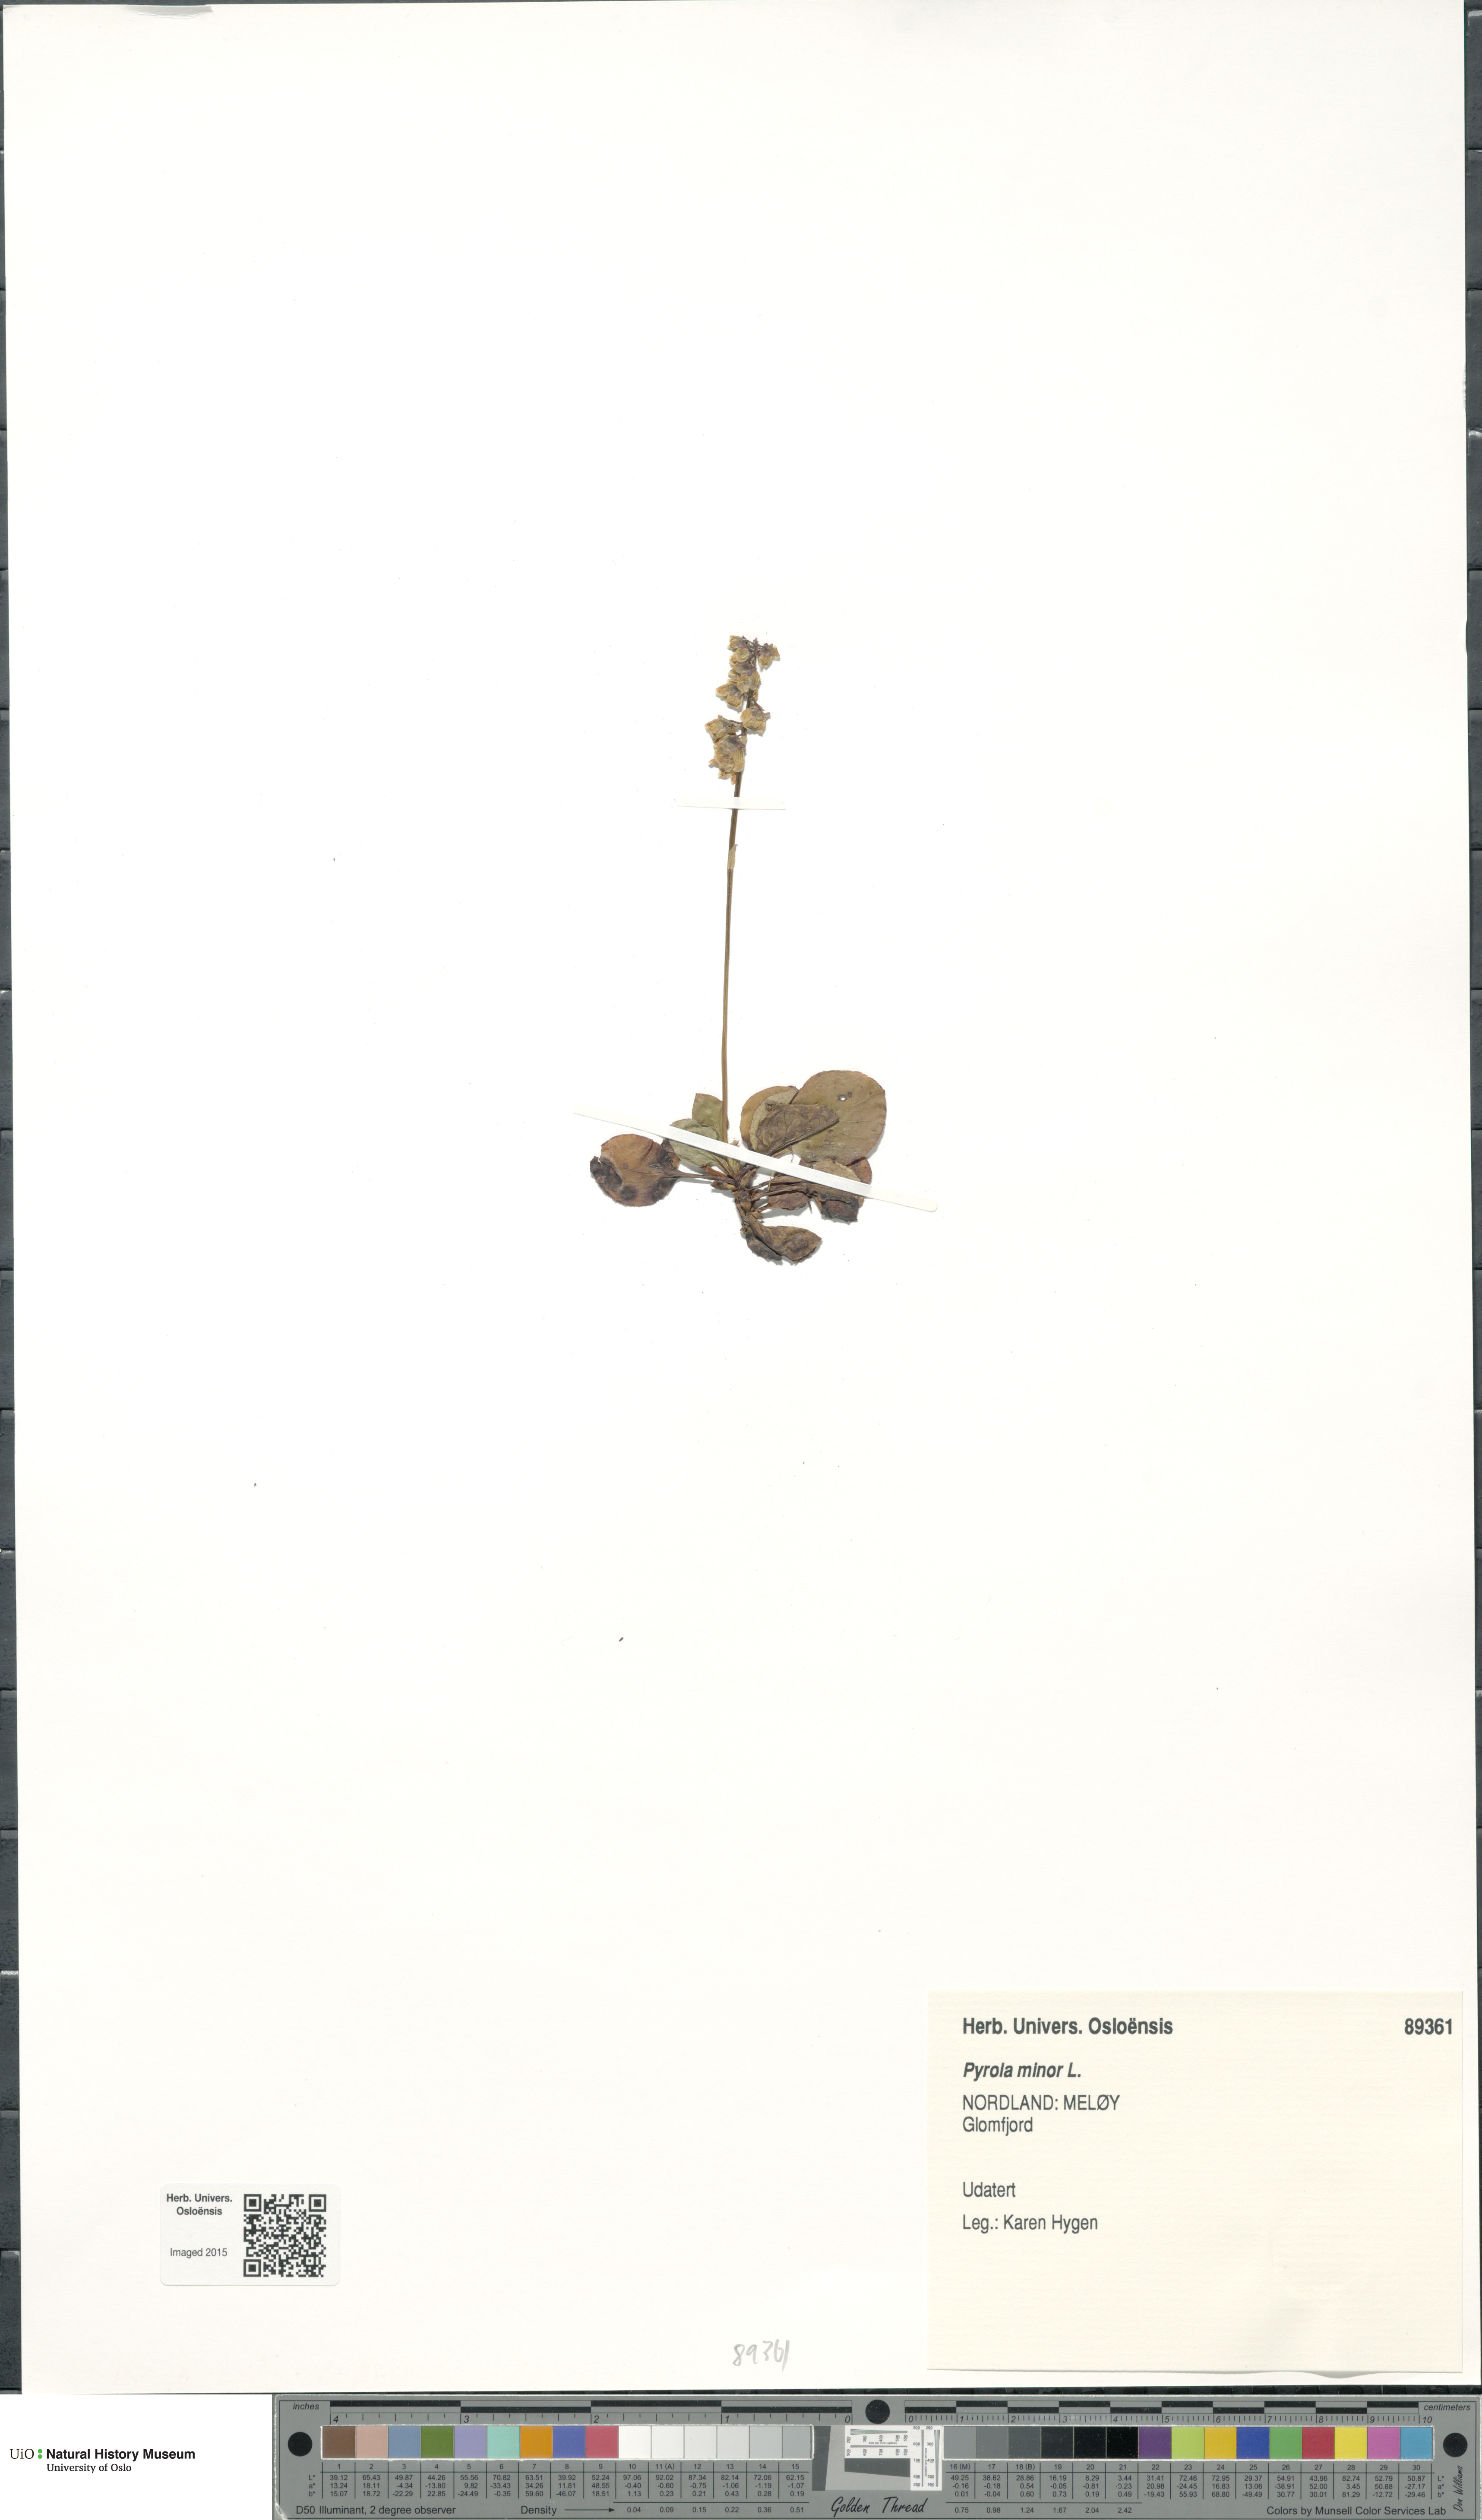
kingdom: Plantae
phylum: Tracheophyta
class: Magnoliopsida
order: Ericales
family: Ericaceae
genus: Pyrola
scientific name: Pyrola minor
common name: Common wintergreen
